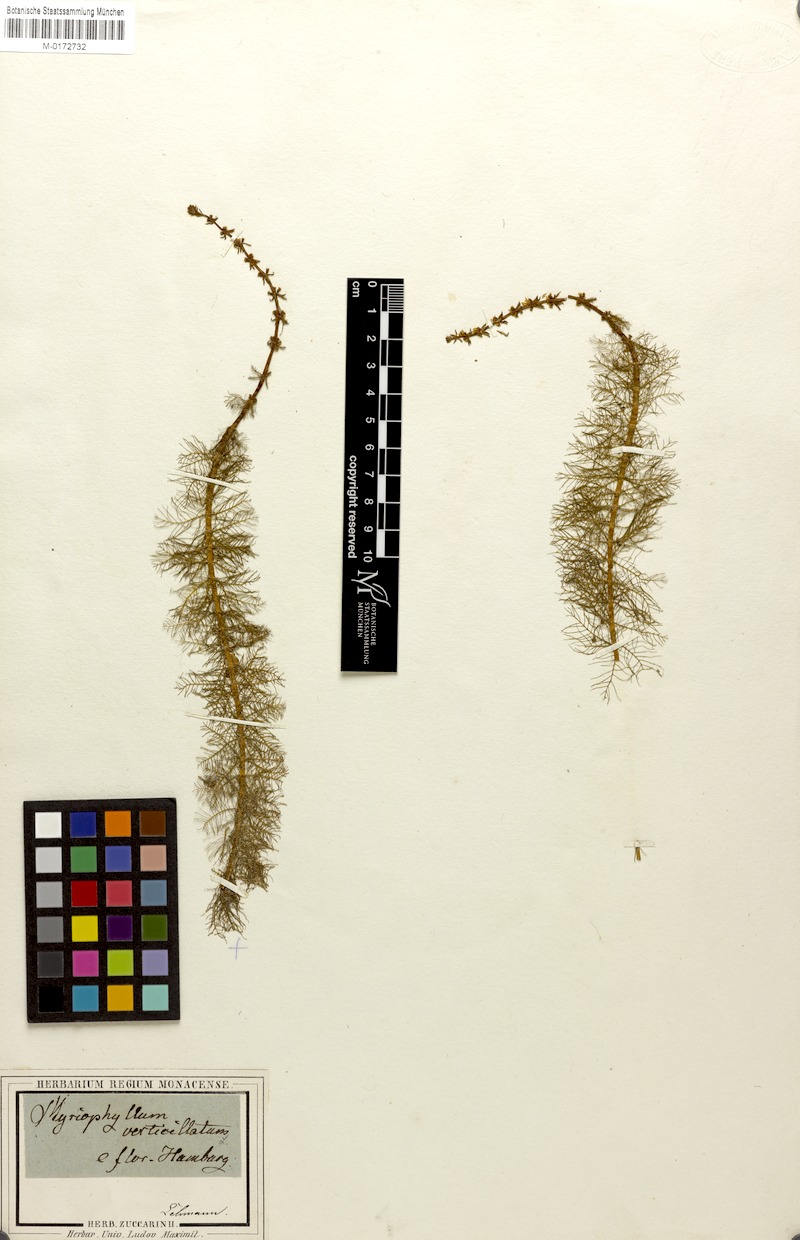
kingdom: Plantae
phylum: Tracheophyta
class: Magnoliopsida
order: Saxifragales
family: Haloragaceae
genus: Myriophyllum
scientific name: Myriophyllum verticillatum
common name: Whorled water-milfoil
